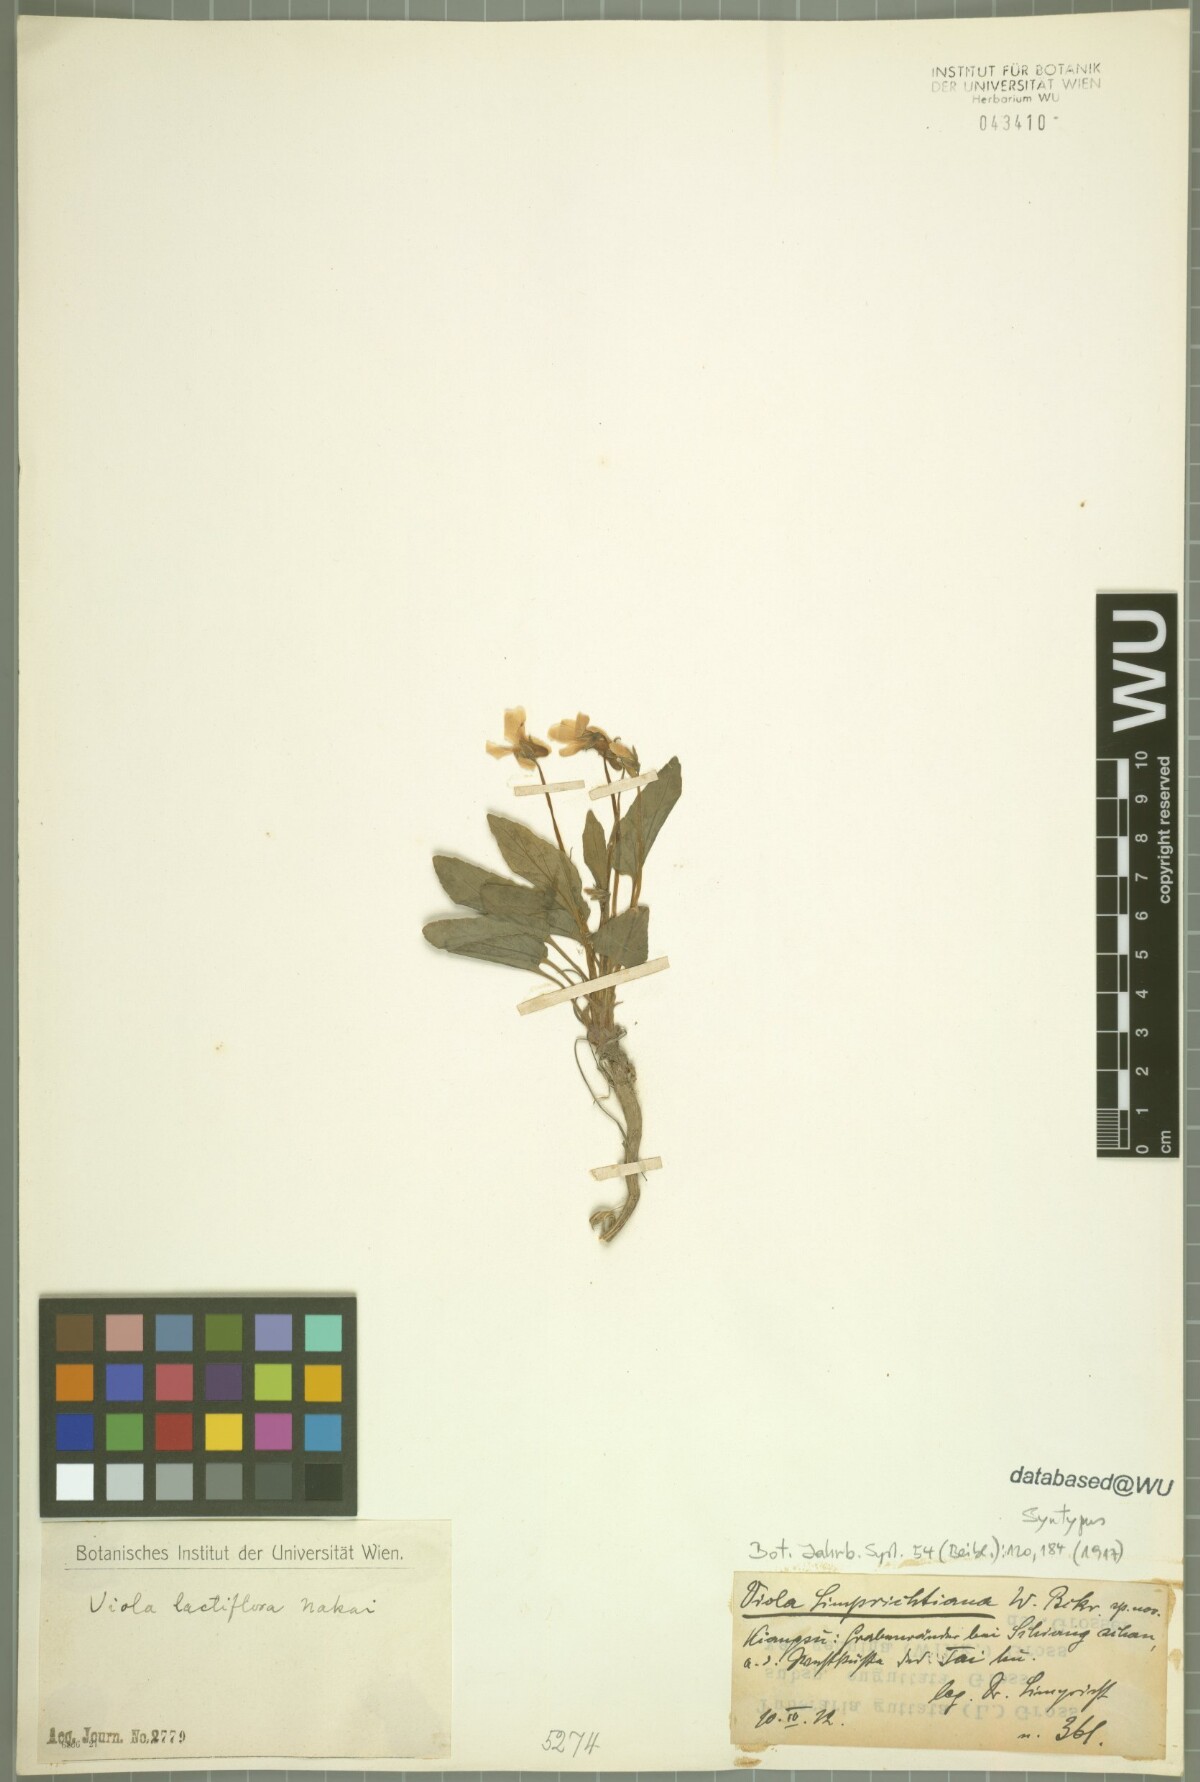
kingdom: Plantae
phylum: Tracheophyta
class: Magnoliopsida
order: Malpighiales
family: Violaceae
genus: Viola
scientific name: Viola lactiflora
